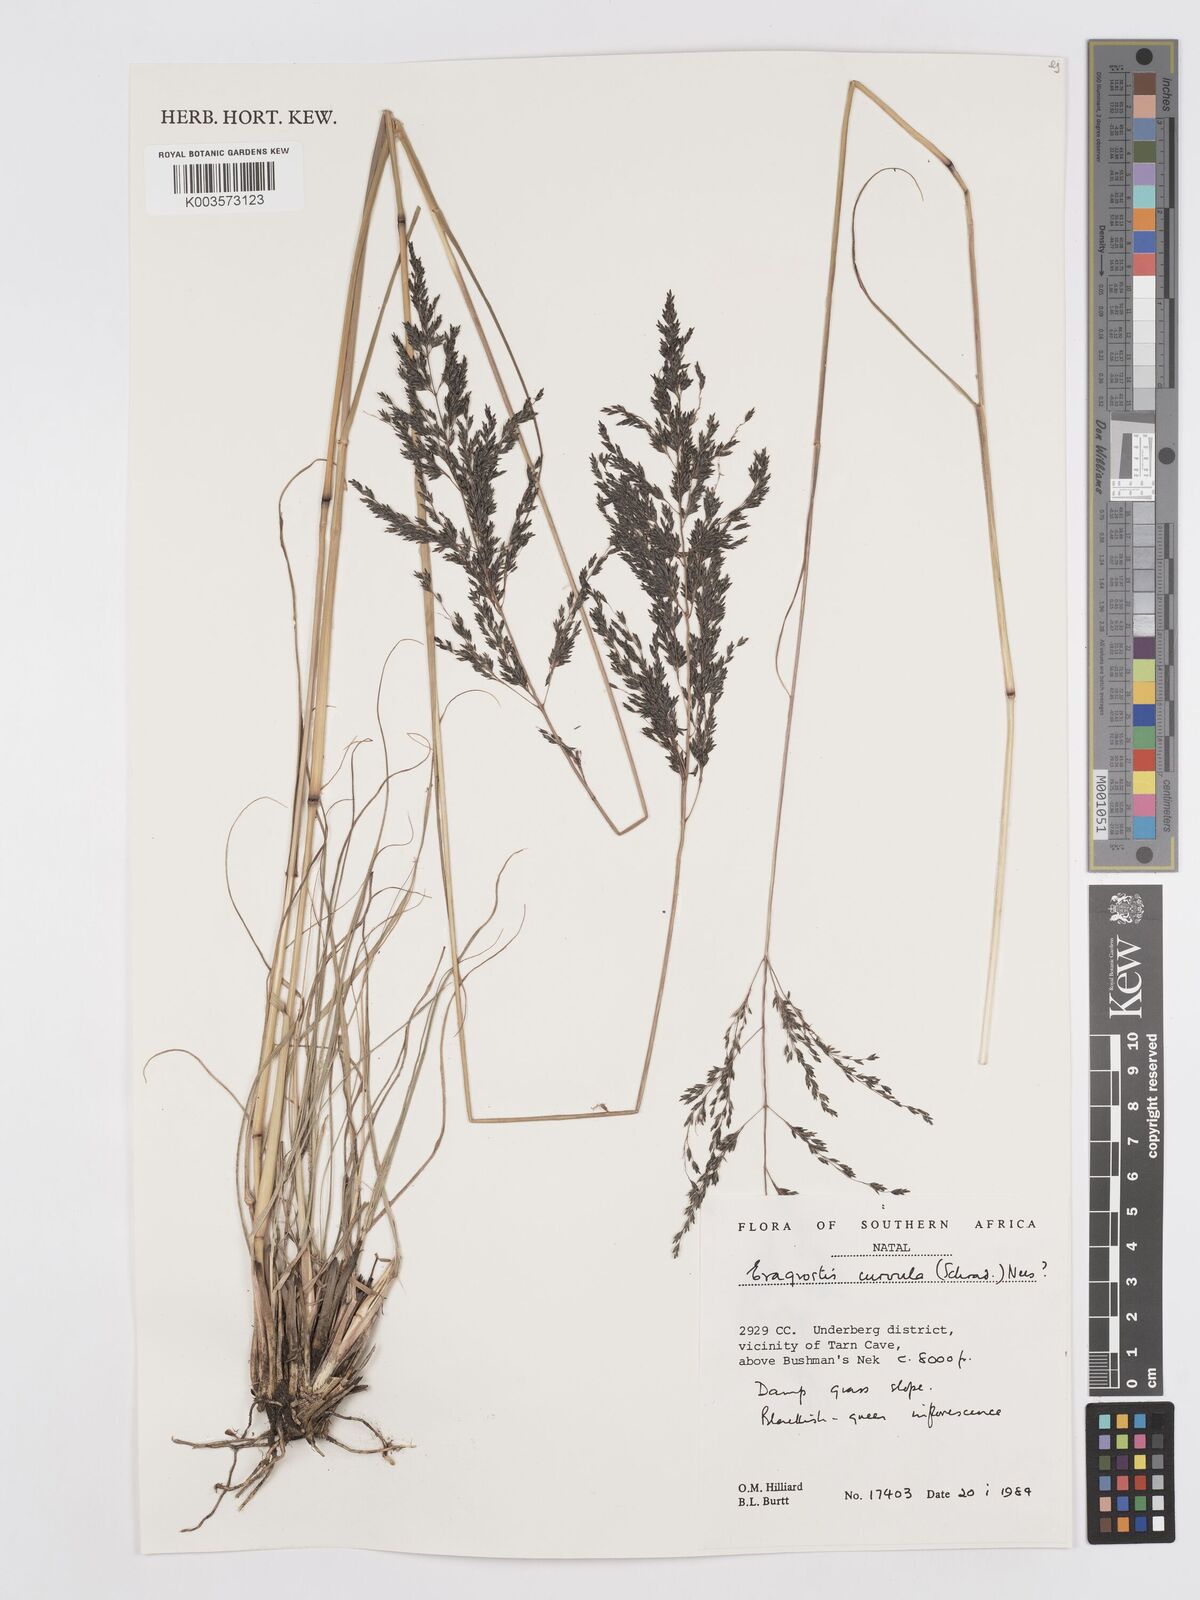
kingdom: Plantae
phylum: Tracheophyta
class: Liliopsida
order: Poales
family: Poaceae
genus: Eragrostis
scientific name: Eragrostis curvula
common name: African love-grass
